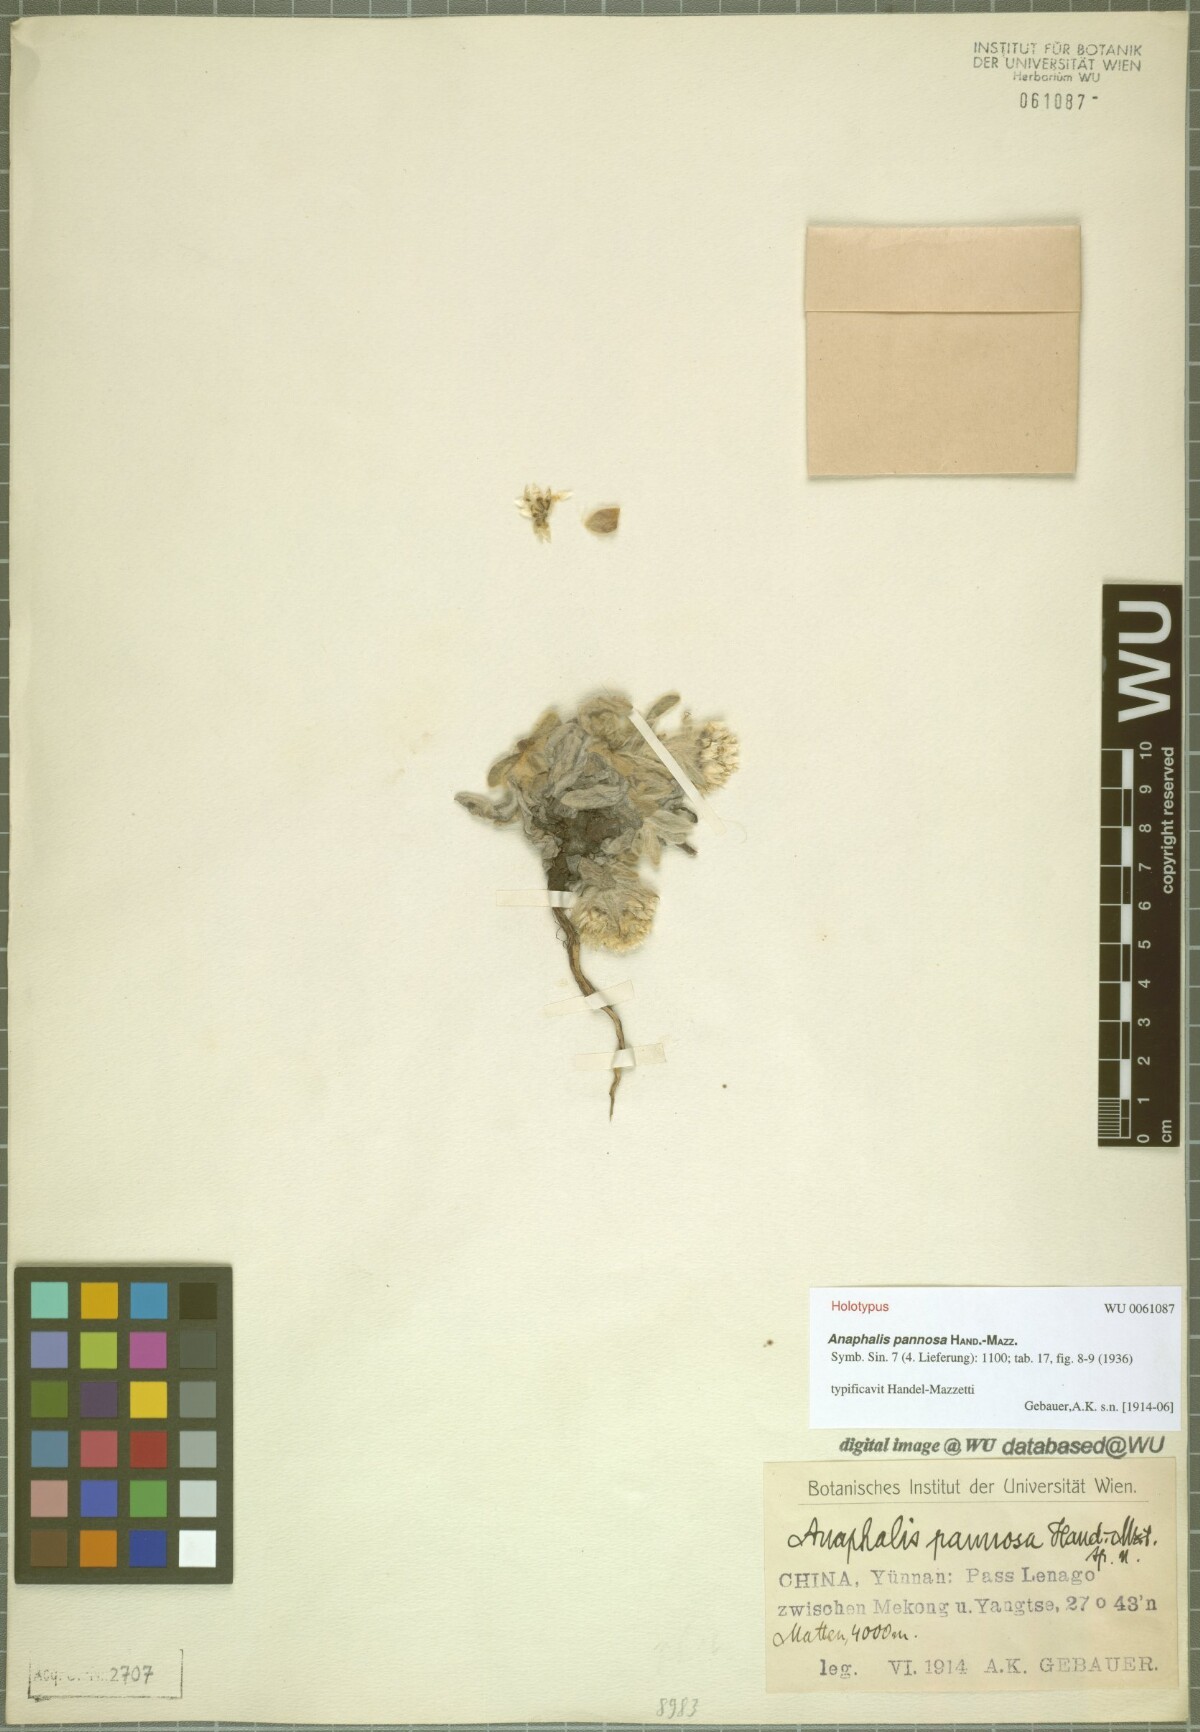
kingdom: Plantae
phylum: Tracheophyta
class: Magnoliopsida
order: Asterales
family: Asteraceae
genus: Anaphalis
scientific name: Anaphalis pannosa
